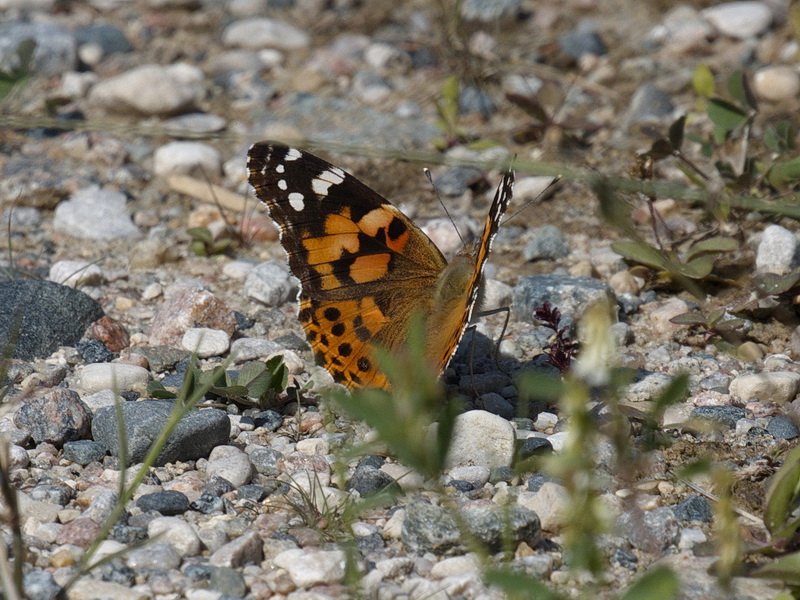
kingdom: Animalia
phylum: Arthropoda
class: Insecta
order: Lepidoptera
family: Nymphalidae
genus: Vanessa
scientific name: Vanessa cardui
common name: Painted Lady
